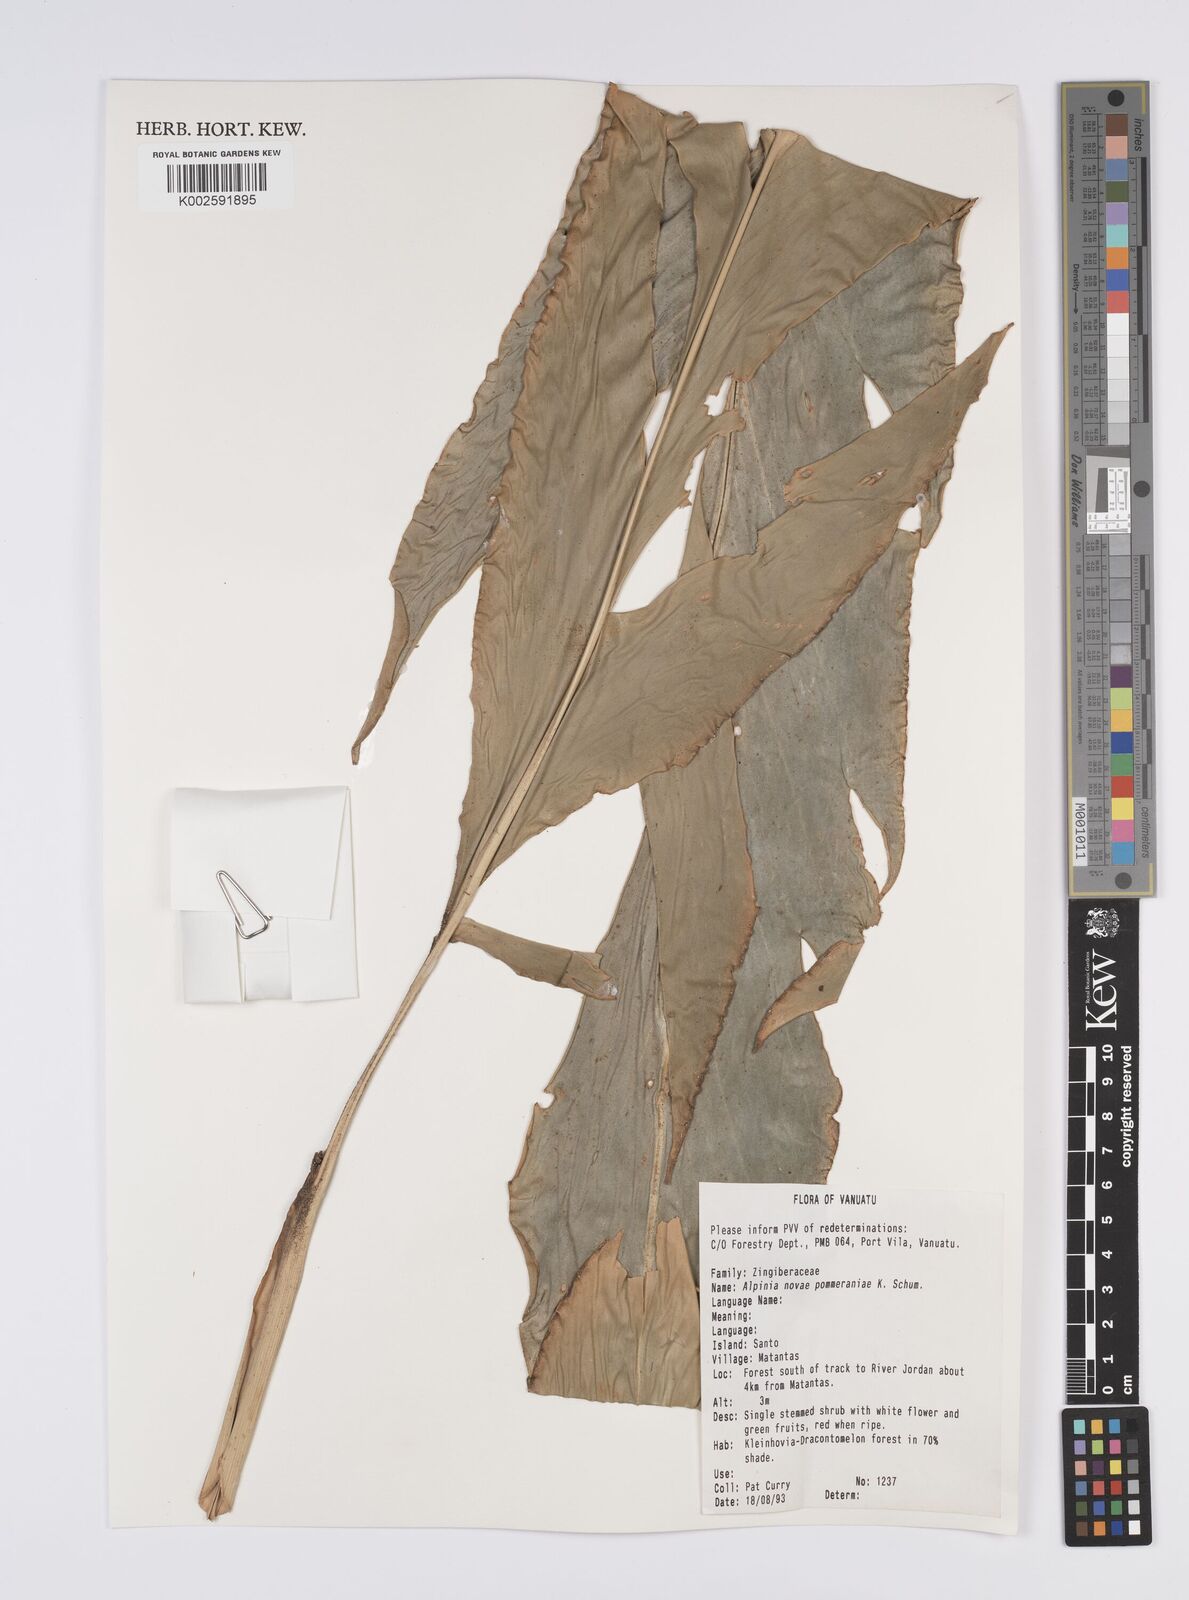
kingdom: Plantae
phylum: Tracheophyta
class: Liliopsida
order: Zingiberales
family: Zingiberaceae
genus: Alpinia
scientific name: Alpinia novae-pommeraniae
